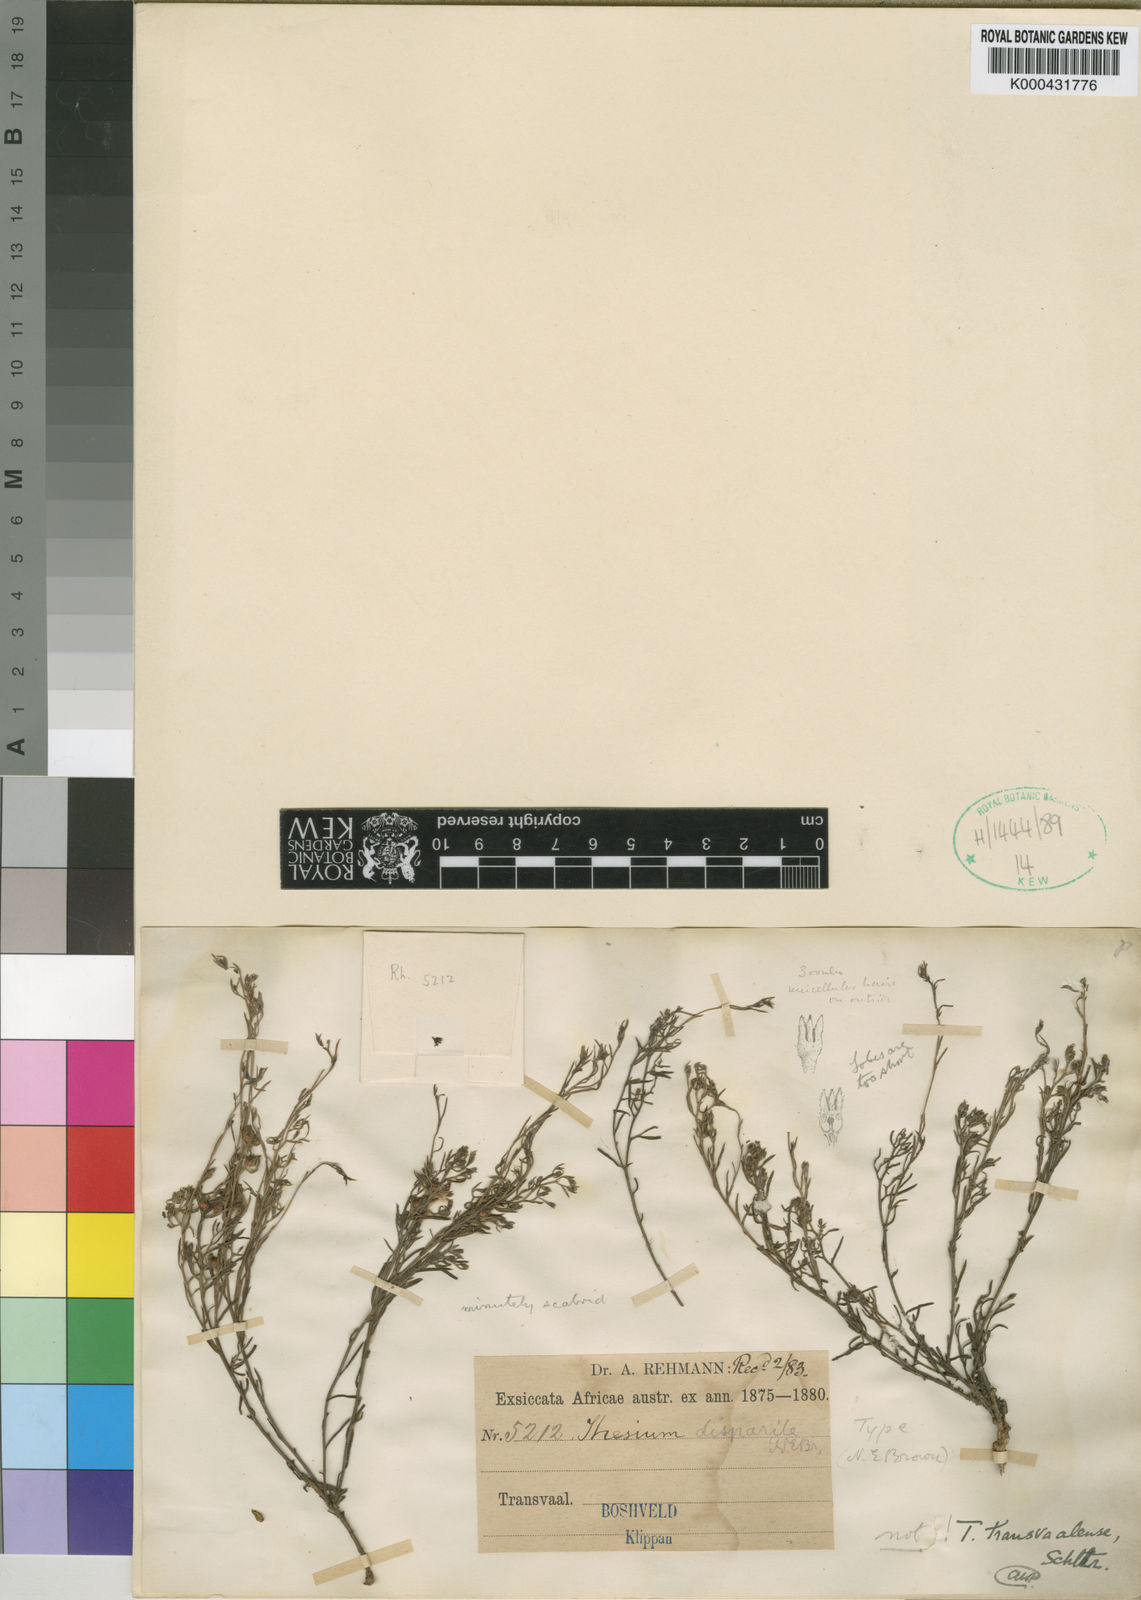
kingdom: Plantae
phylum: Tracheophyta
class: Magnoliopsida
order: Santalales
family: Thesiaceae
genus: Thesium
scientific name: Thesium disparile
